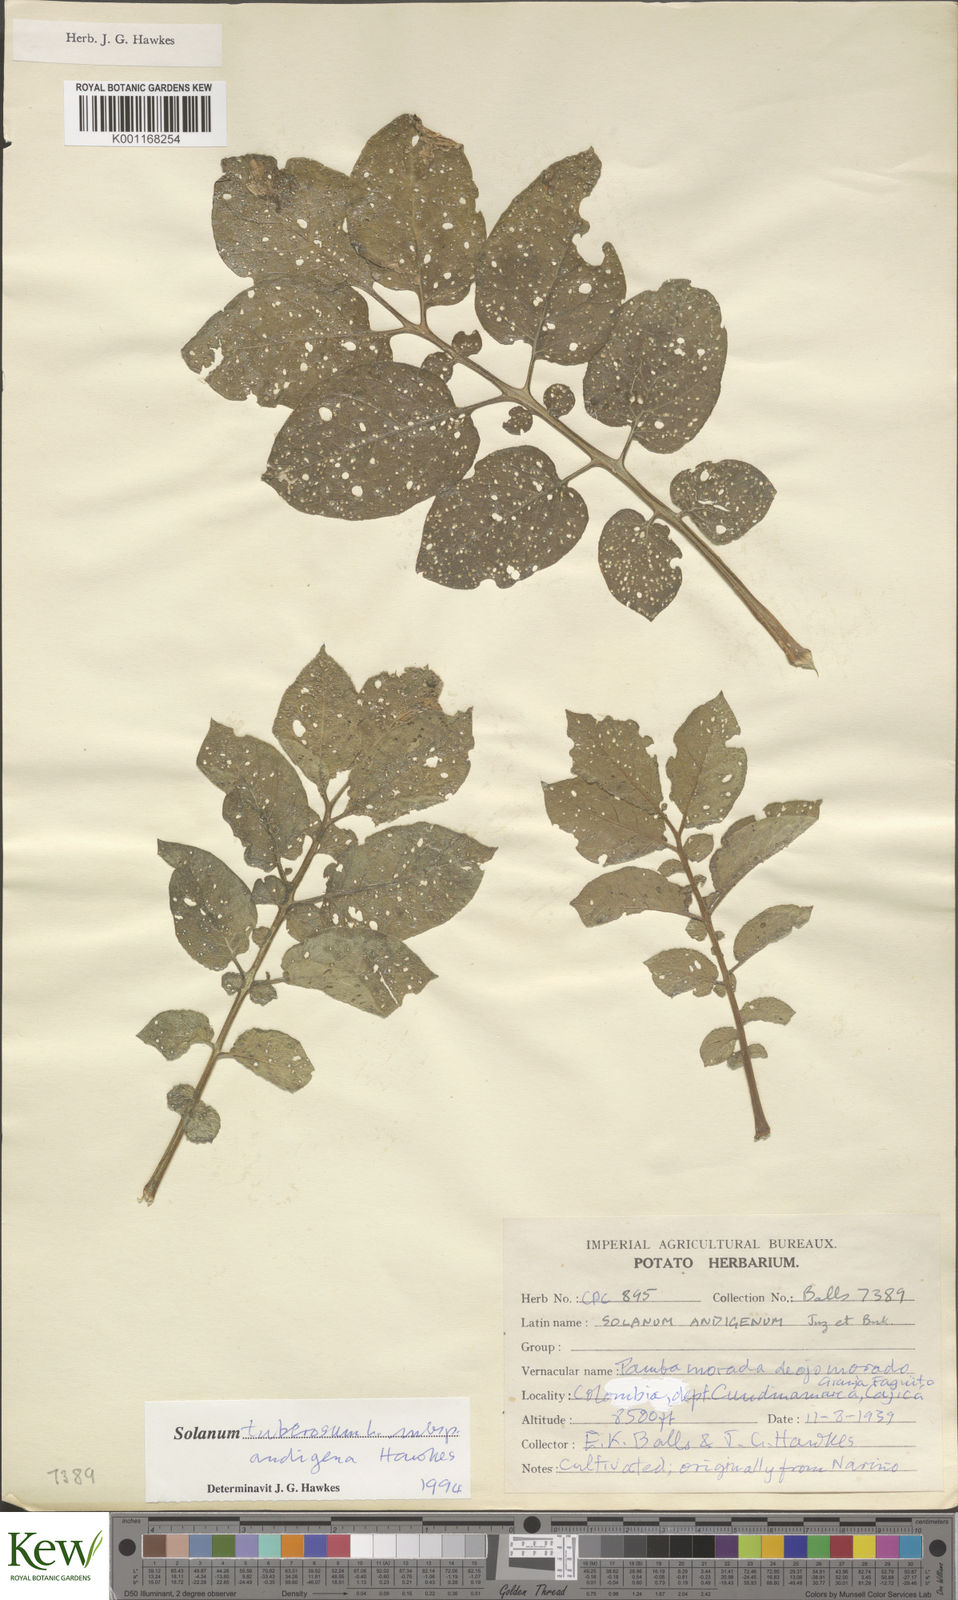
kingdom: Plantae
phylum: Tracheophyta
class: Magnoliopsida
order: Solanales
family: Solanaceae
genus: Solanum
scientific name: Solanum tuberosum
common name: Potato
